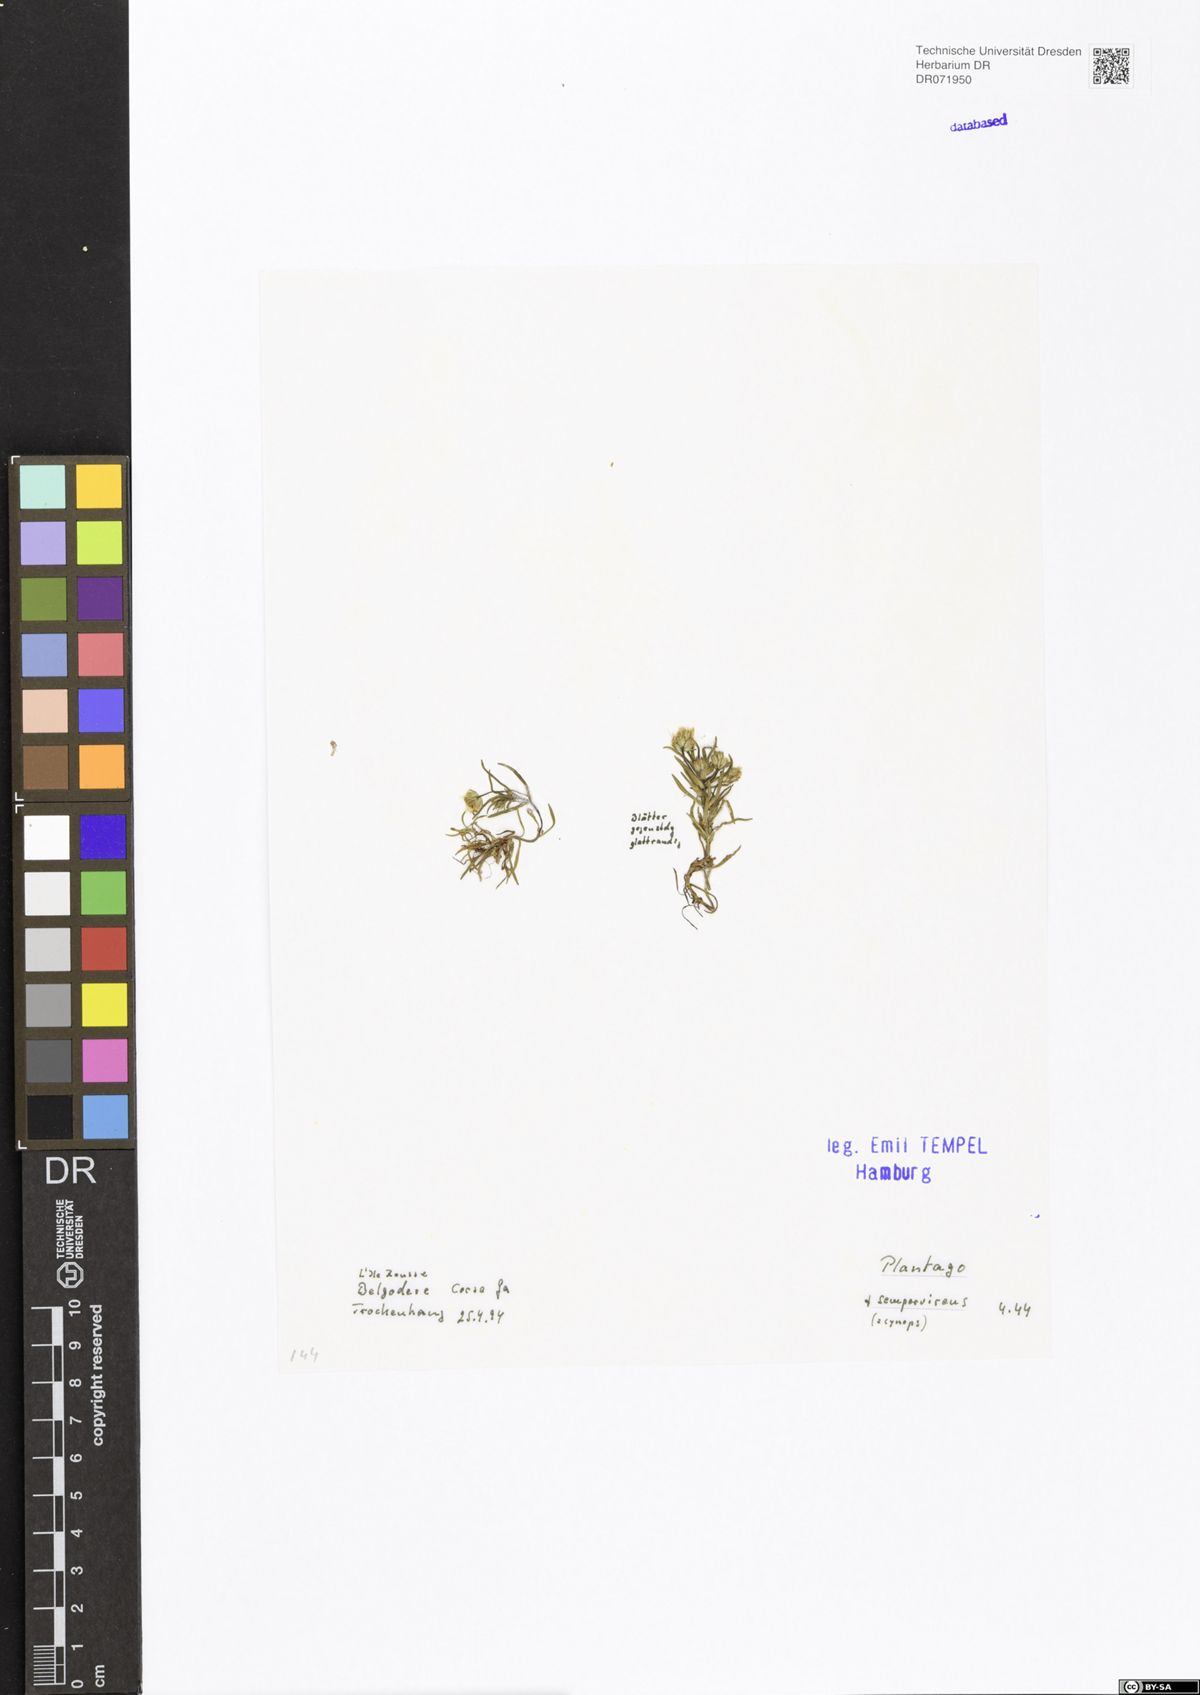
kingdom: Plantae
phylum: Tracheophyta
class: Magnoliopsida
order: Lamiales
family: Plantaginaceae
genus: Plantago
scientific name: Plantago sempervirens
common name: Shrubby plantain
